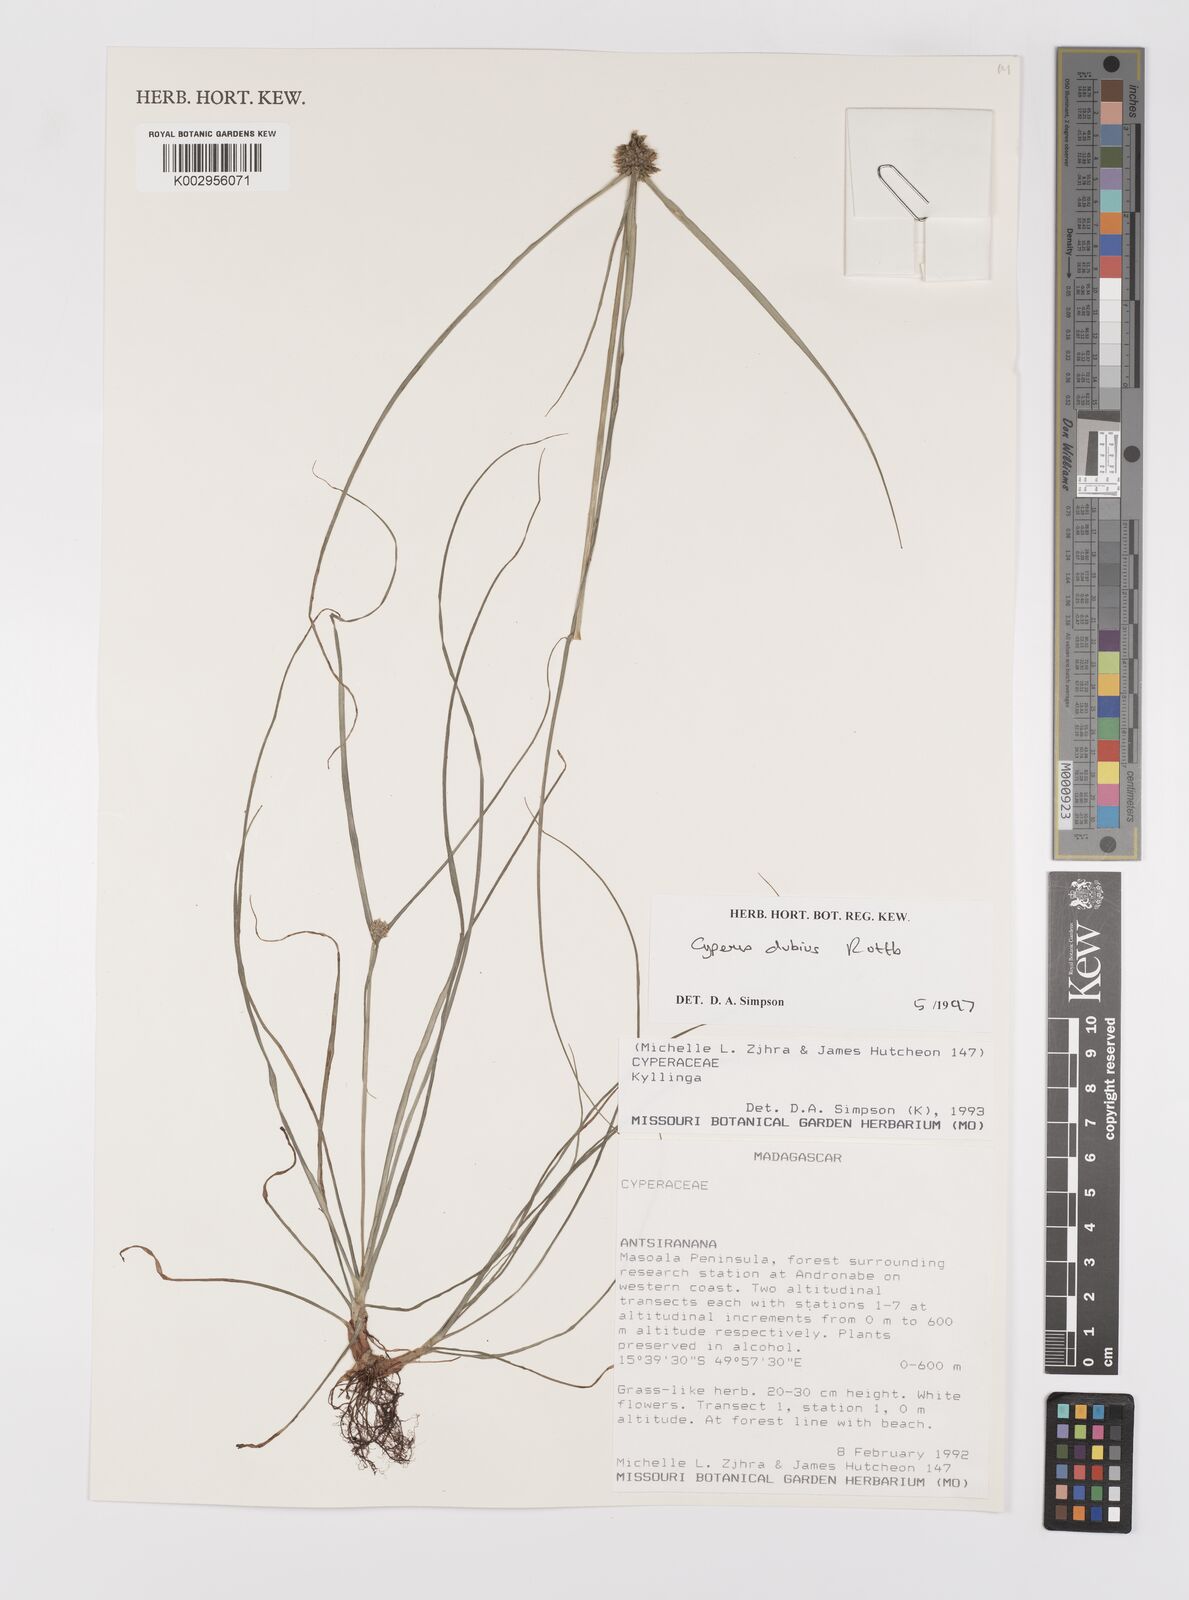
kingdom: Plantae
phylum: Tracheophyta
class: Liliopsida
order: Poales
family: Cyperaceae
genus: Cyperus
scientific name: Cyperus dubius
